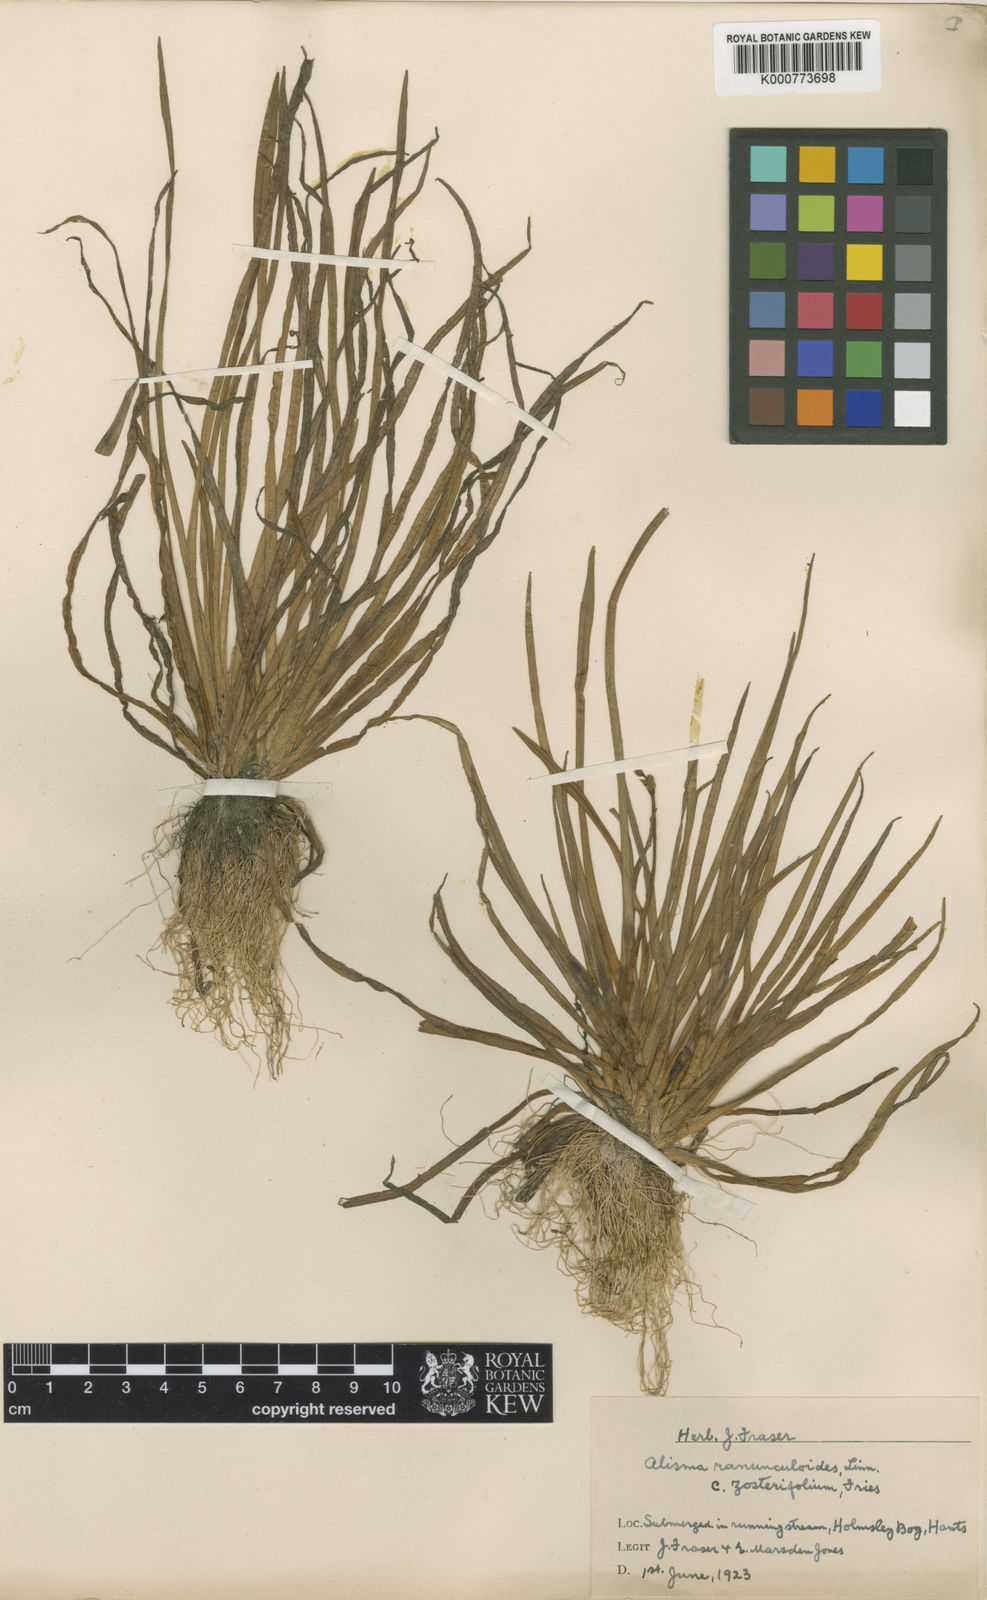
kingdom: Plantae
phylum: Tracheophyta
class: Liliopsida
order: Alismatales
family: Alismataceae
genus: Baldellia
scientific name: Baldellia ranunculoides
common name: Lesser water-plantain
